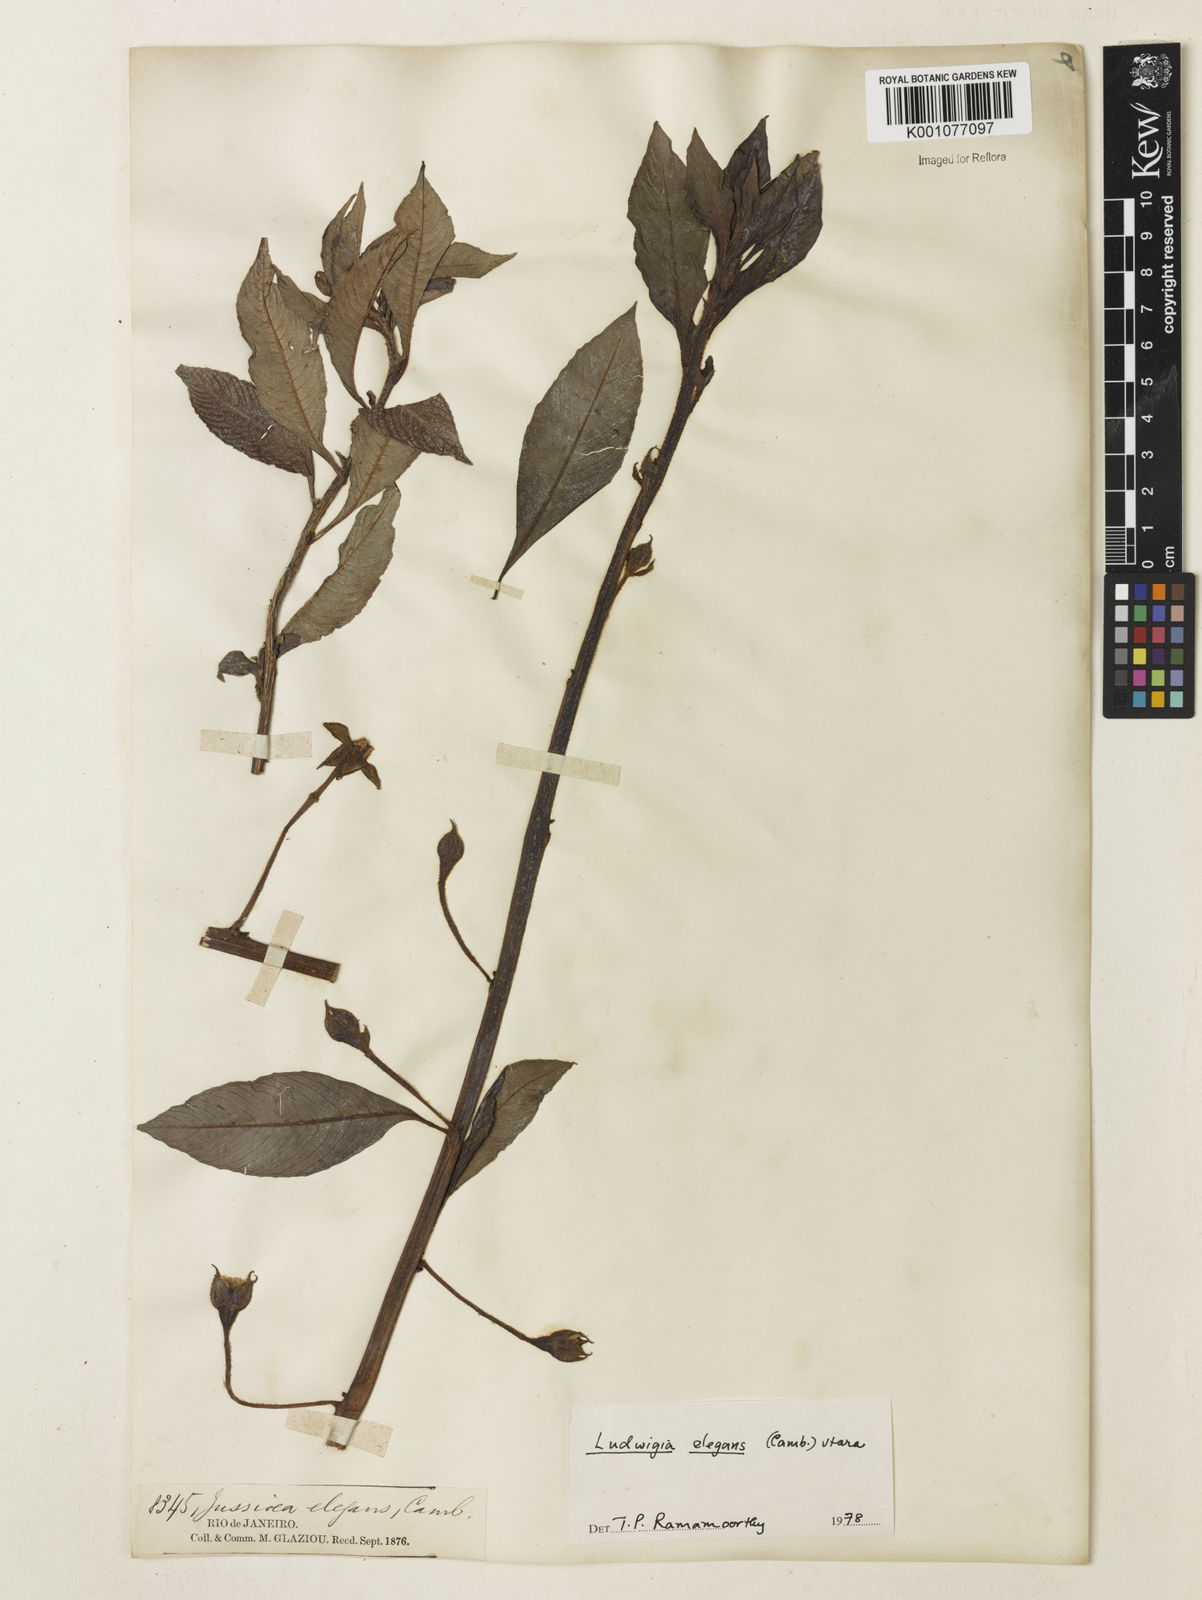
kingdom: Plantae
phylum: Tracheophyta
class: Magnoliopsida
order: Myrtales
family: Onagraceae
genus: Ludwigia
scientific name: Ludwigia elegans
